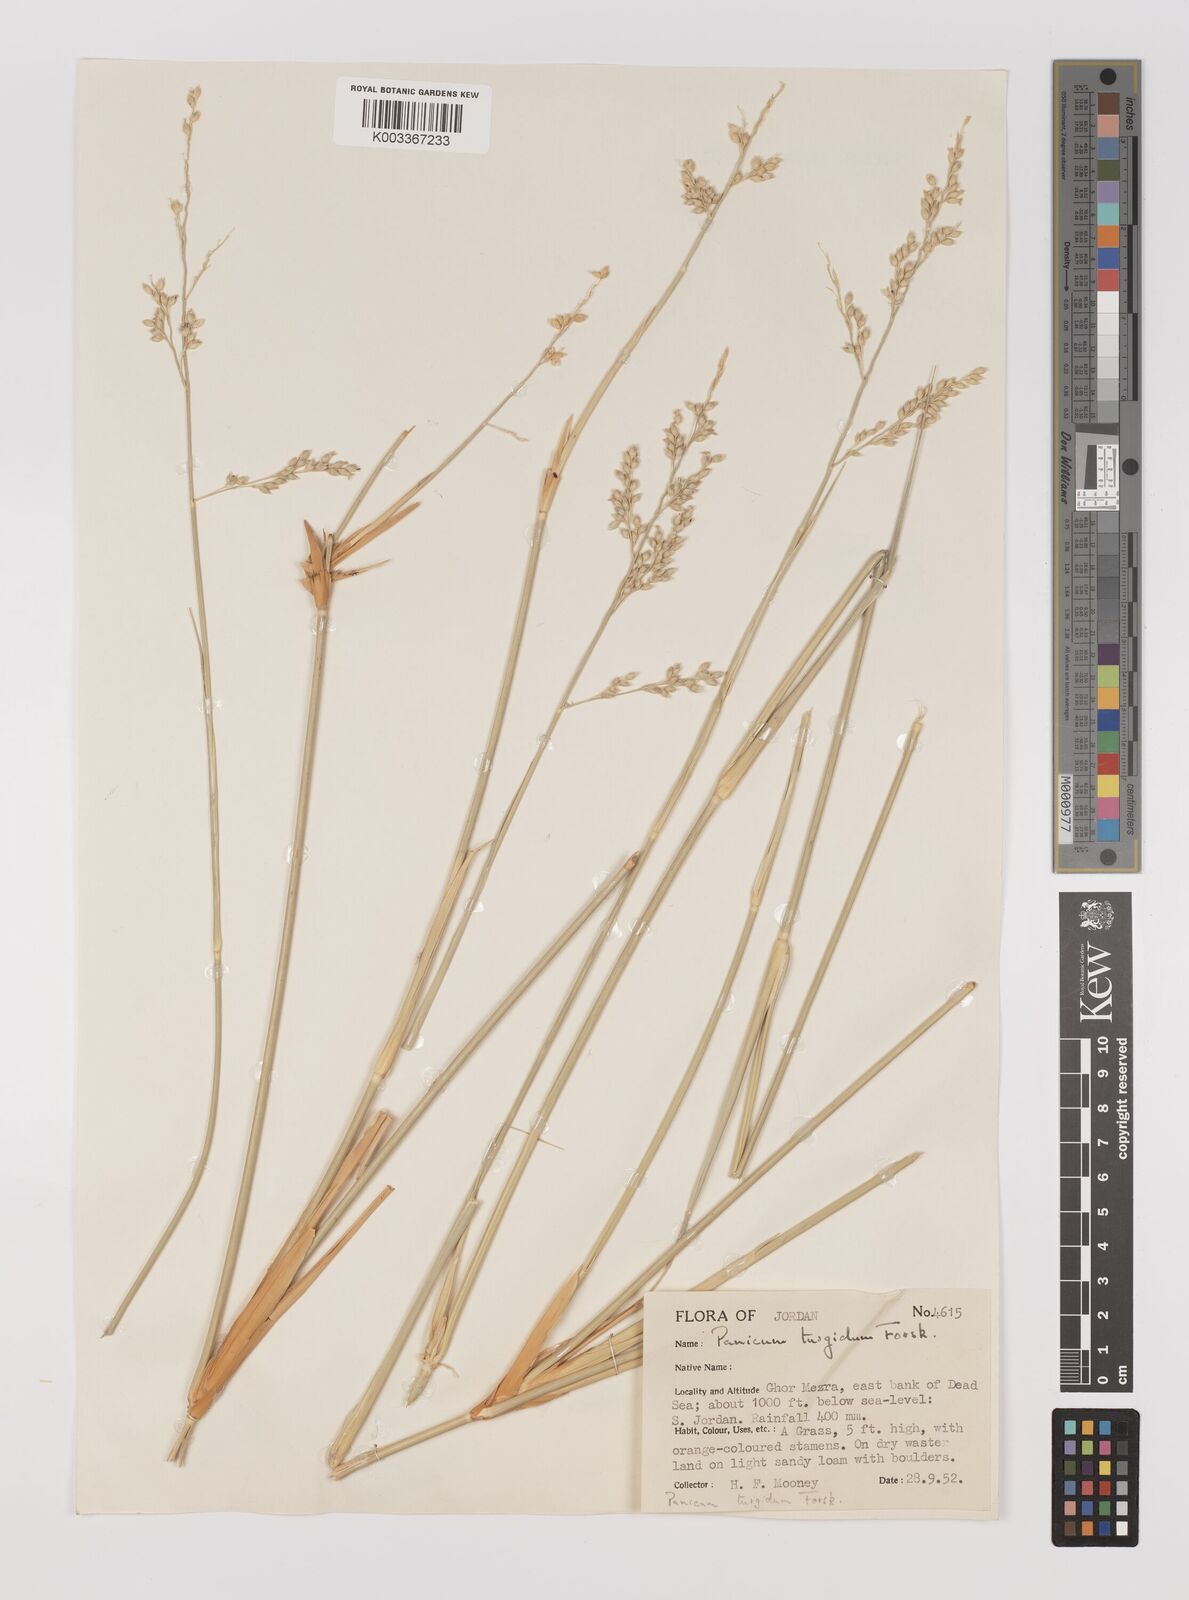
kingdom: Plantae
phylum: Tracheophyta
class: Liliopsida
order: Poales
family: Poaceae
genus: Panicum
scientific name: Panicum turgidum
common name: Desert grass
